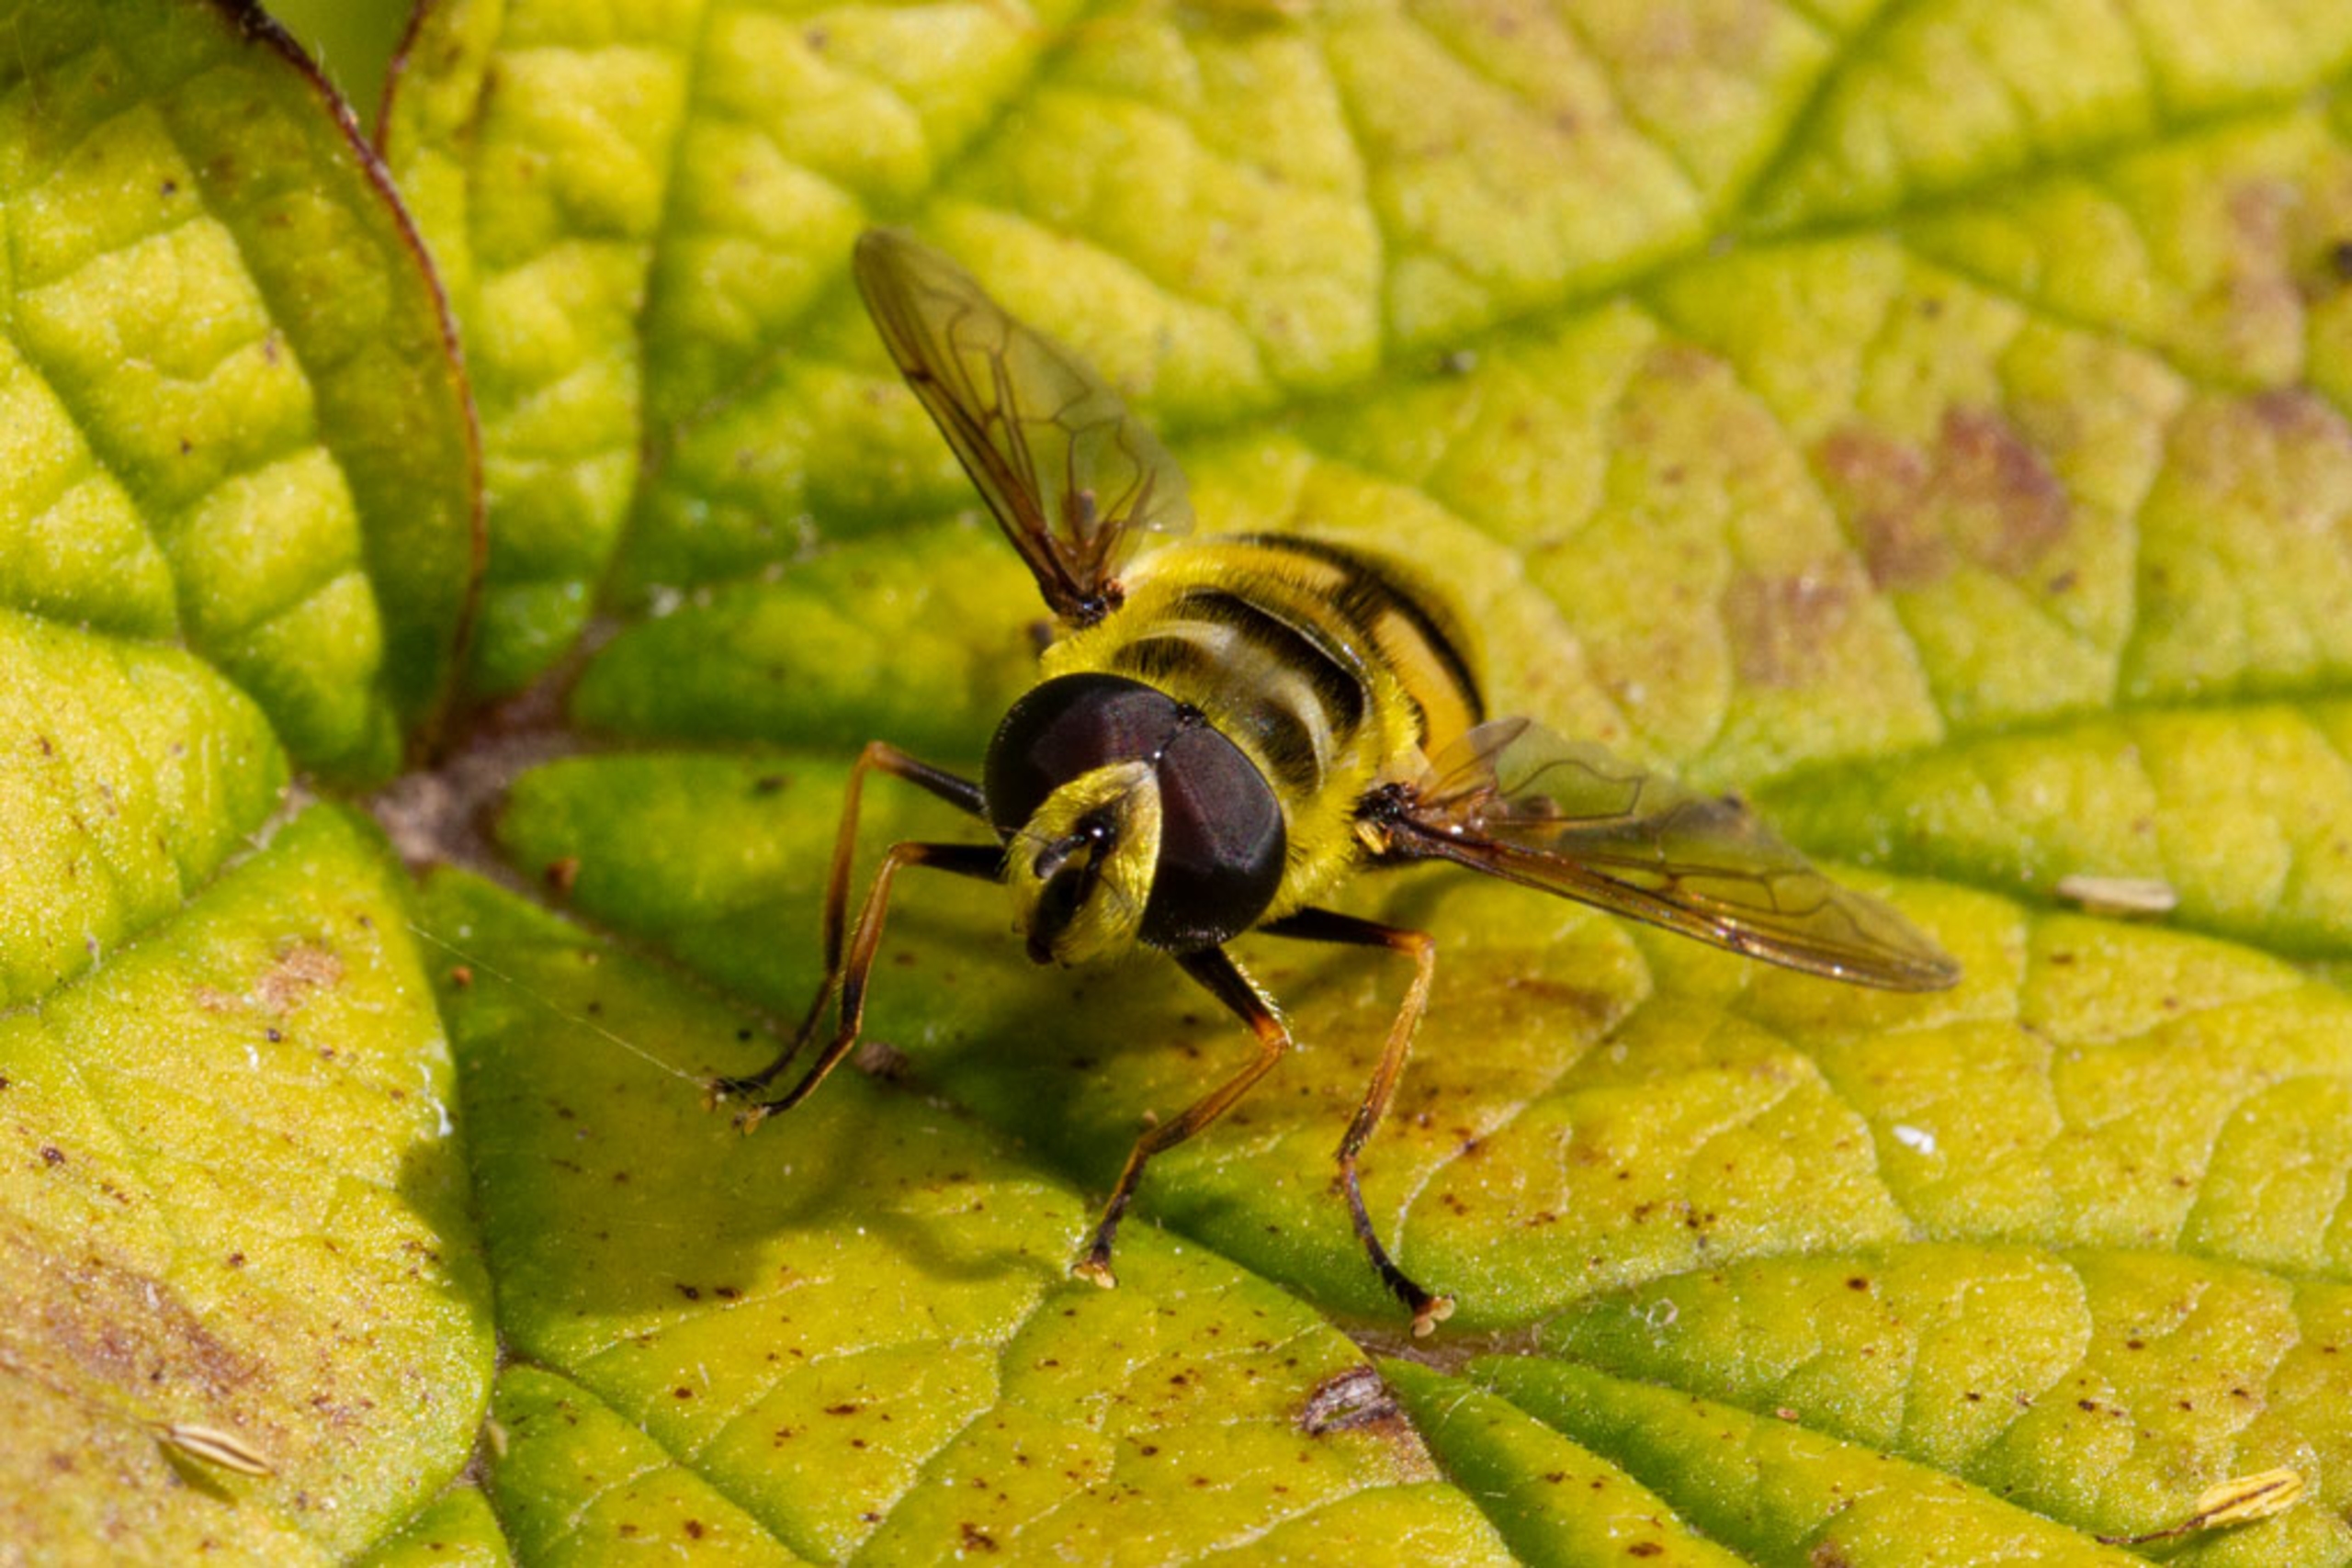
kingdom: Animalia
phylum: Arthropoda
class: Insecta
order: Diptera
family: Syrphidae
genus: Myathropa
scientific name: Myathropa florea
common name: Dødningehoved-svirreflue
